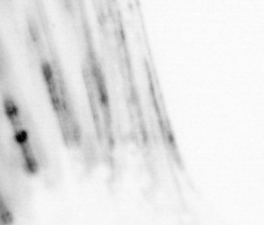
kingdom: Animalia
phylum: Chordata
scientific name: Chordata
